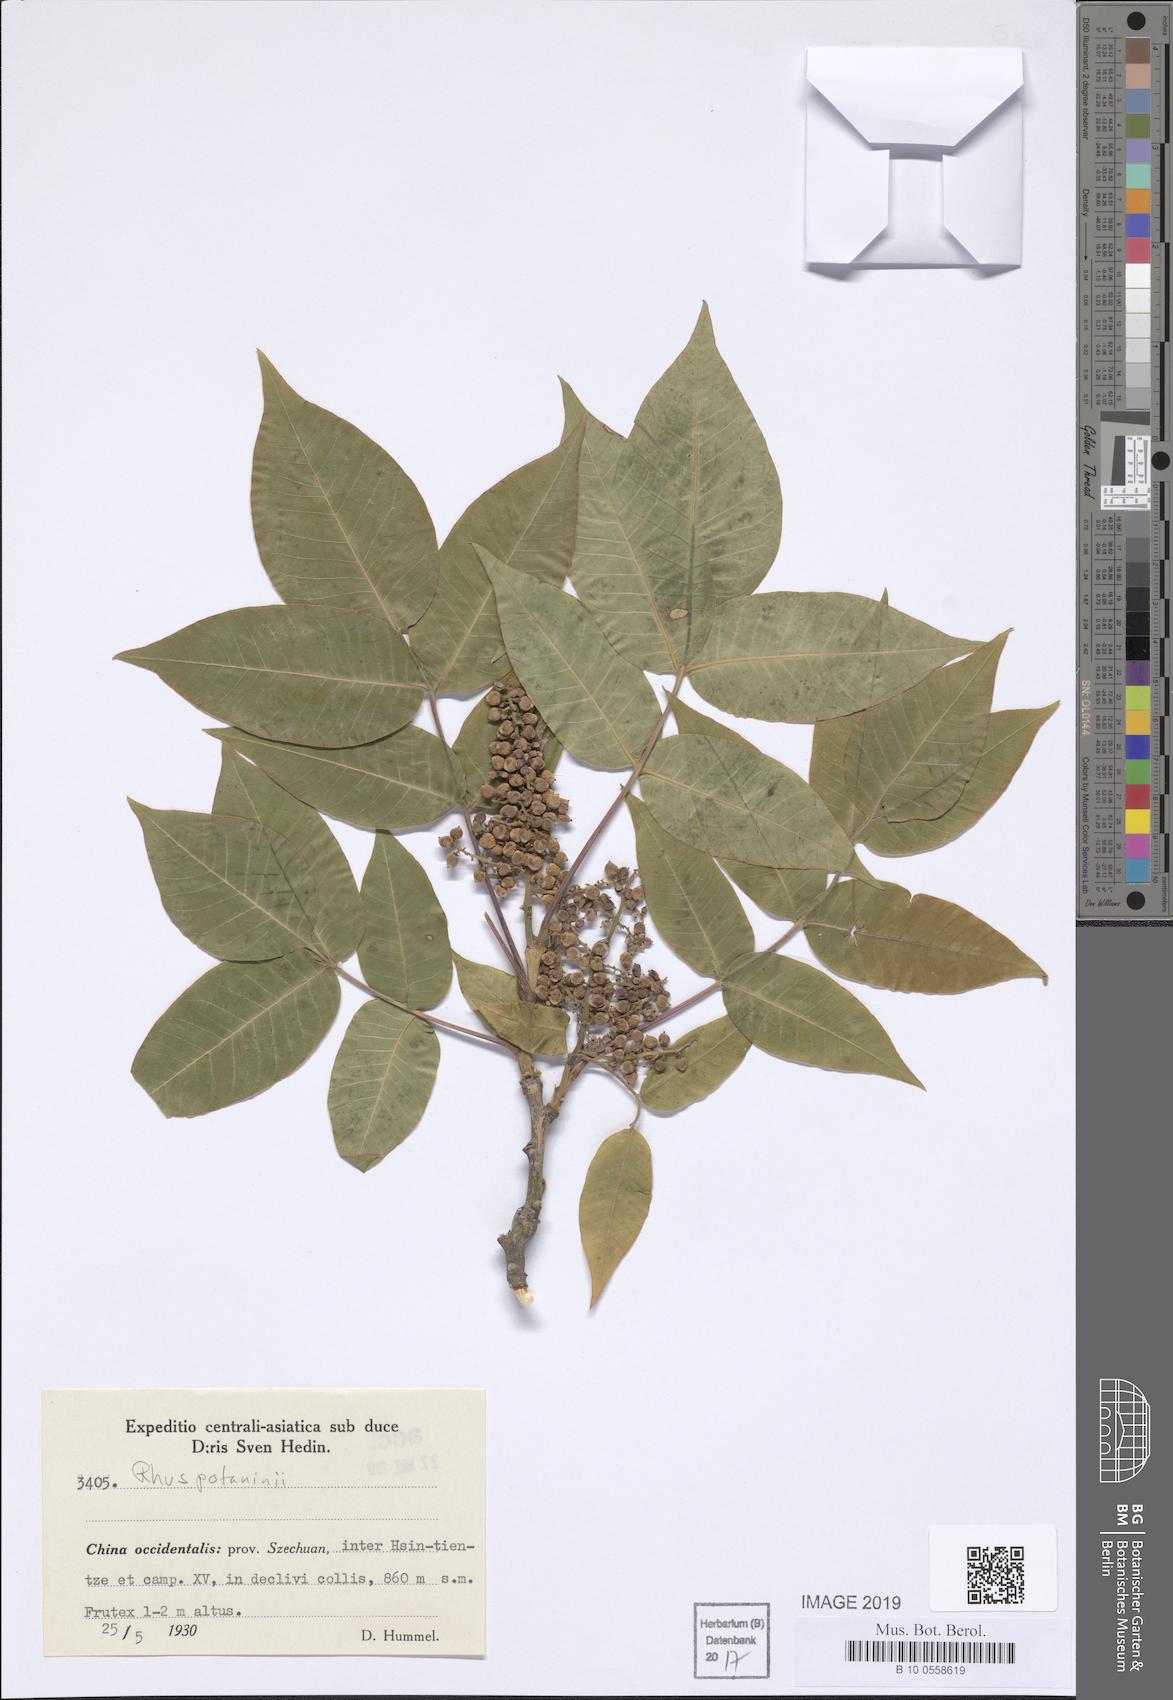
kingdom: Plantae
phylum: Tracheophyta
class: Magnoliopsida
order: Sapindales
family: Anacardiaceae
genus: Rhus
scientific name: Rhus potaninii
